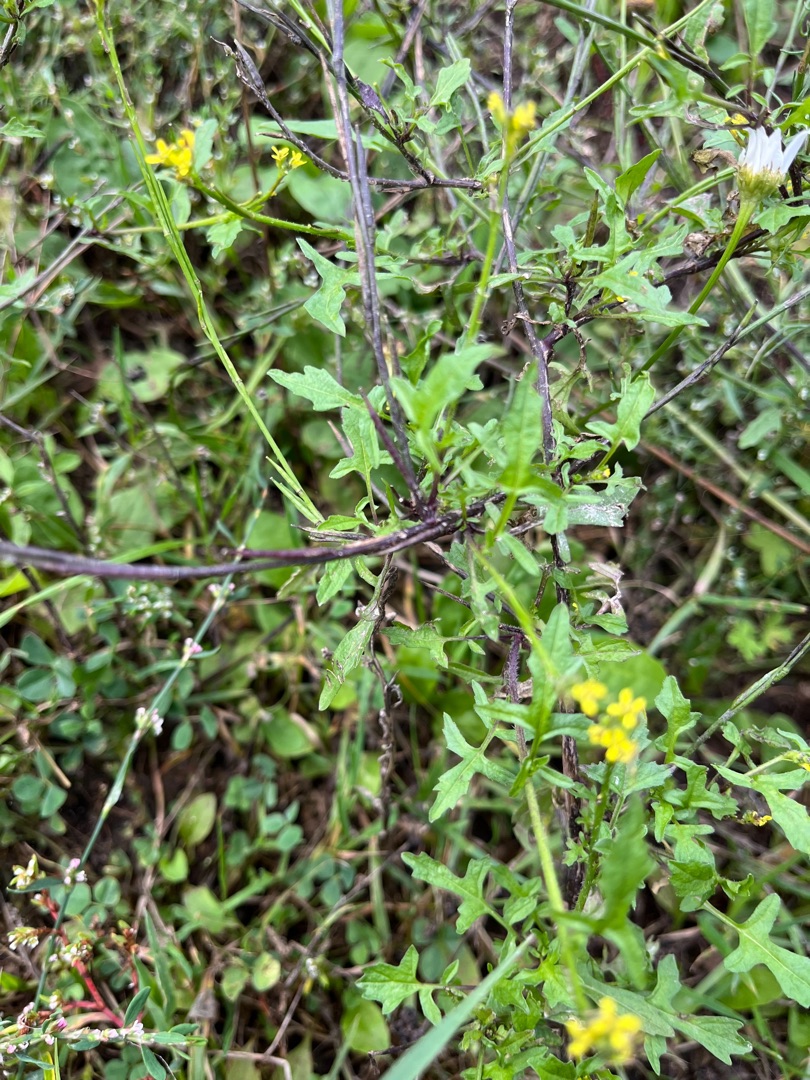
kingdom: Plantae
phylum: Tracheophyta
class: Magnoliopsida
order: Brassicales
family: Brassicaceae
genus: Sisymbrium
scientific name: Sisymbrium officinale
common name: Rank vejsennep
